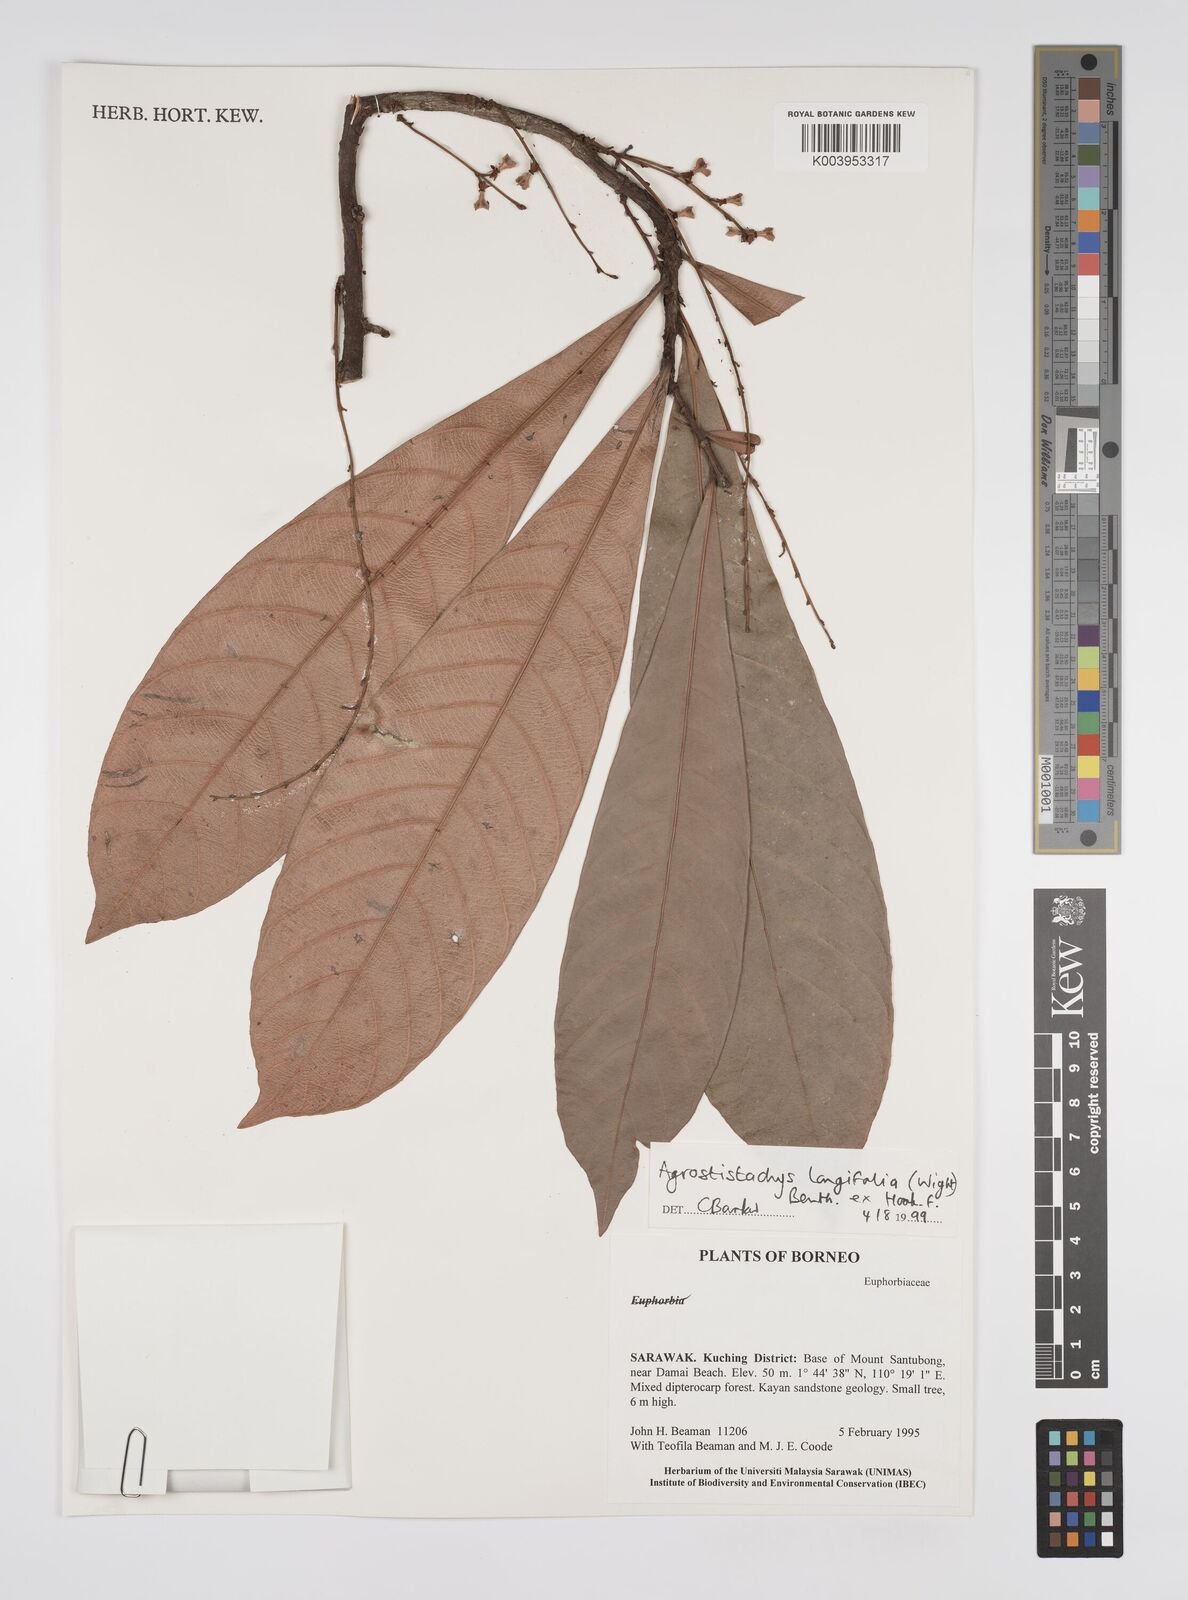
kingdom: Plantae
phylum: Tracheophyta
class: Magnoliopsida
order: Malpighiales
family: Euphorbiaceae
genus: Agrostistachys
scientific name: Agrostistachys
